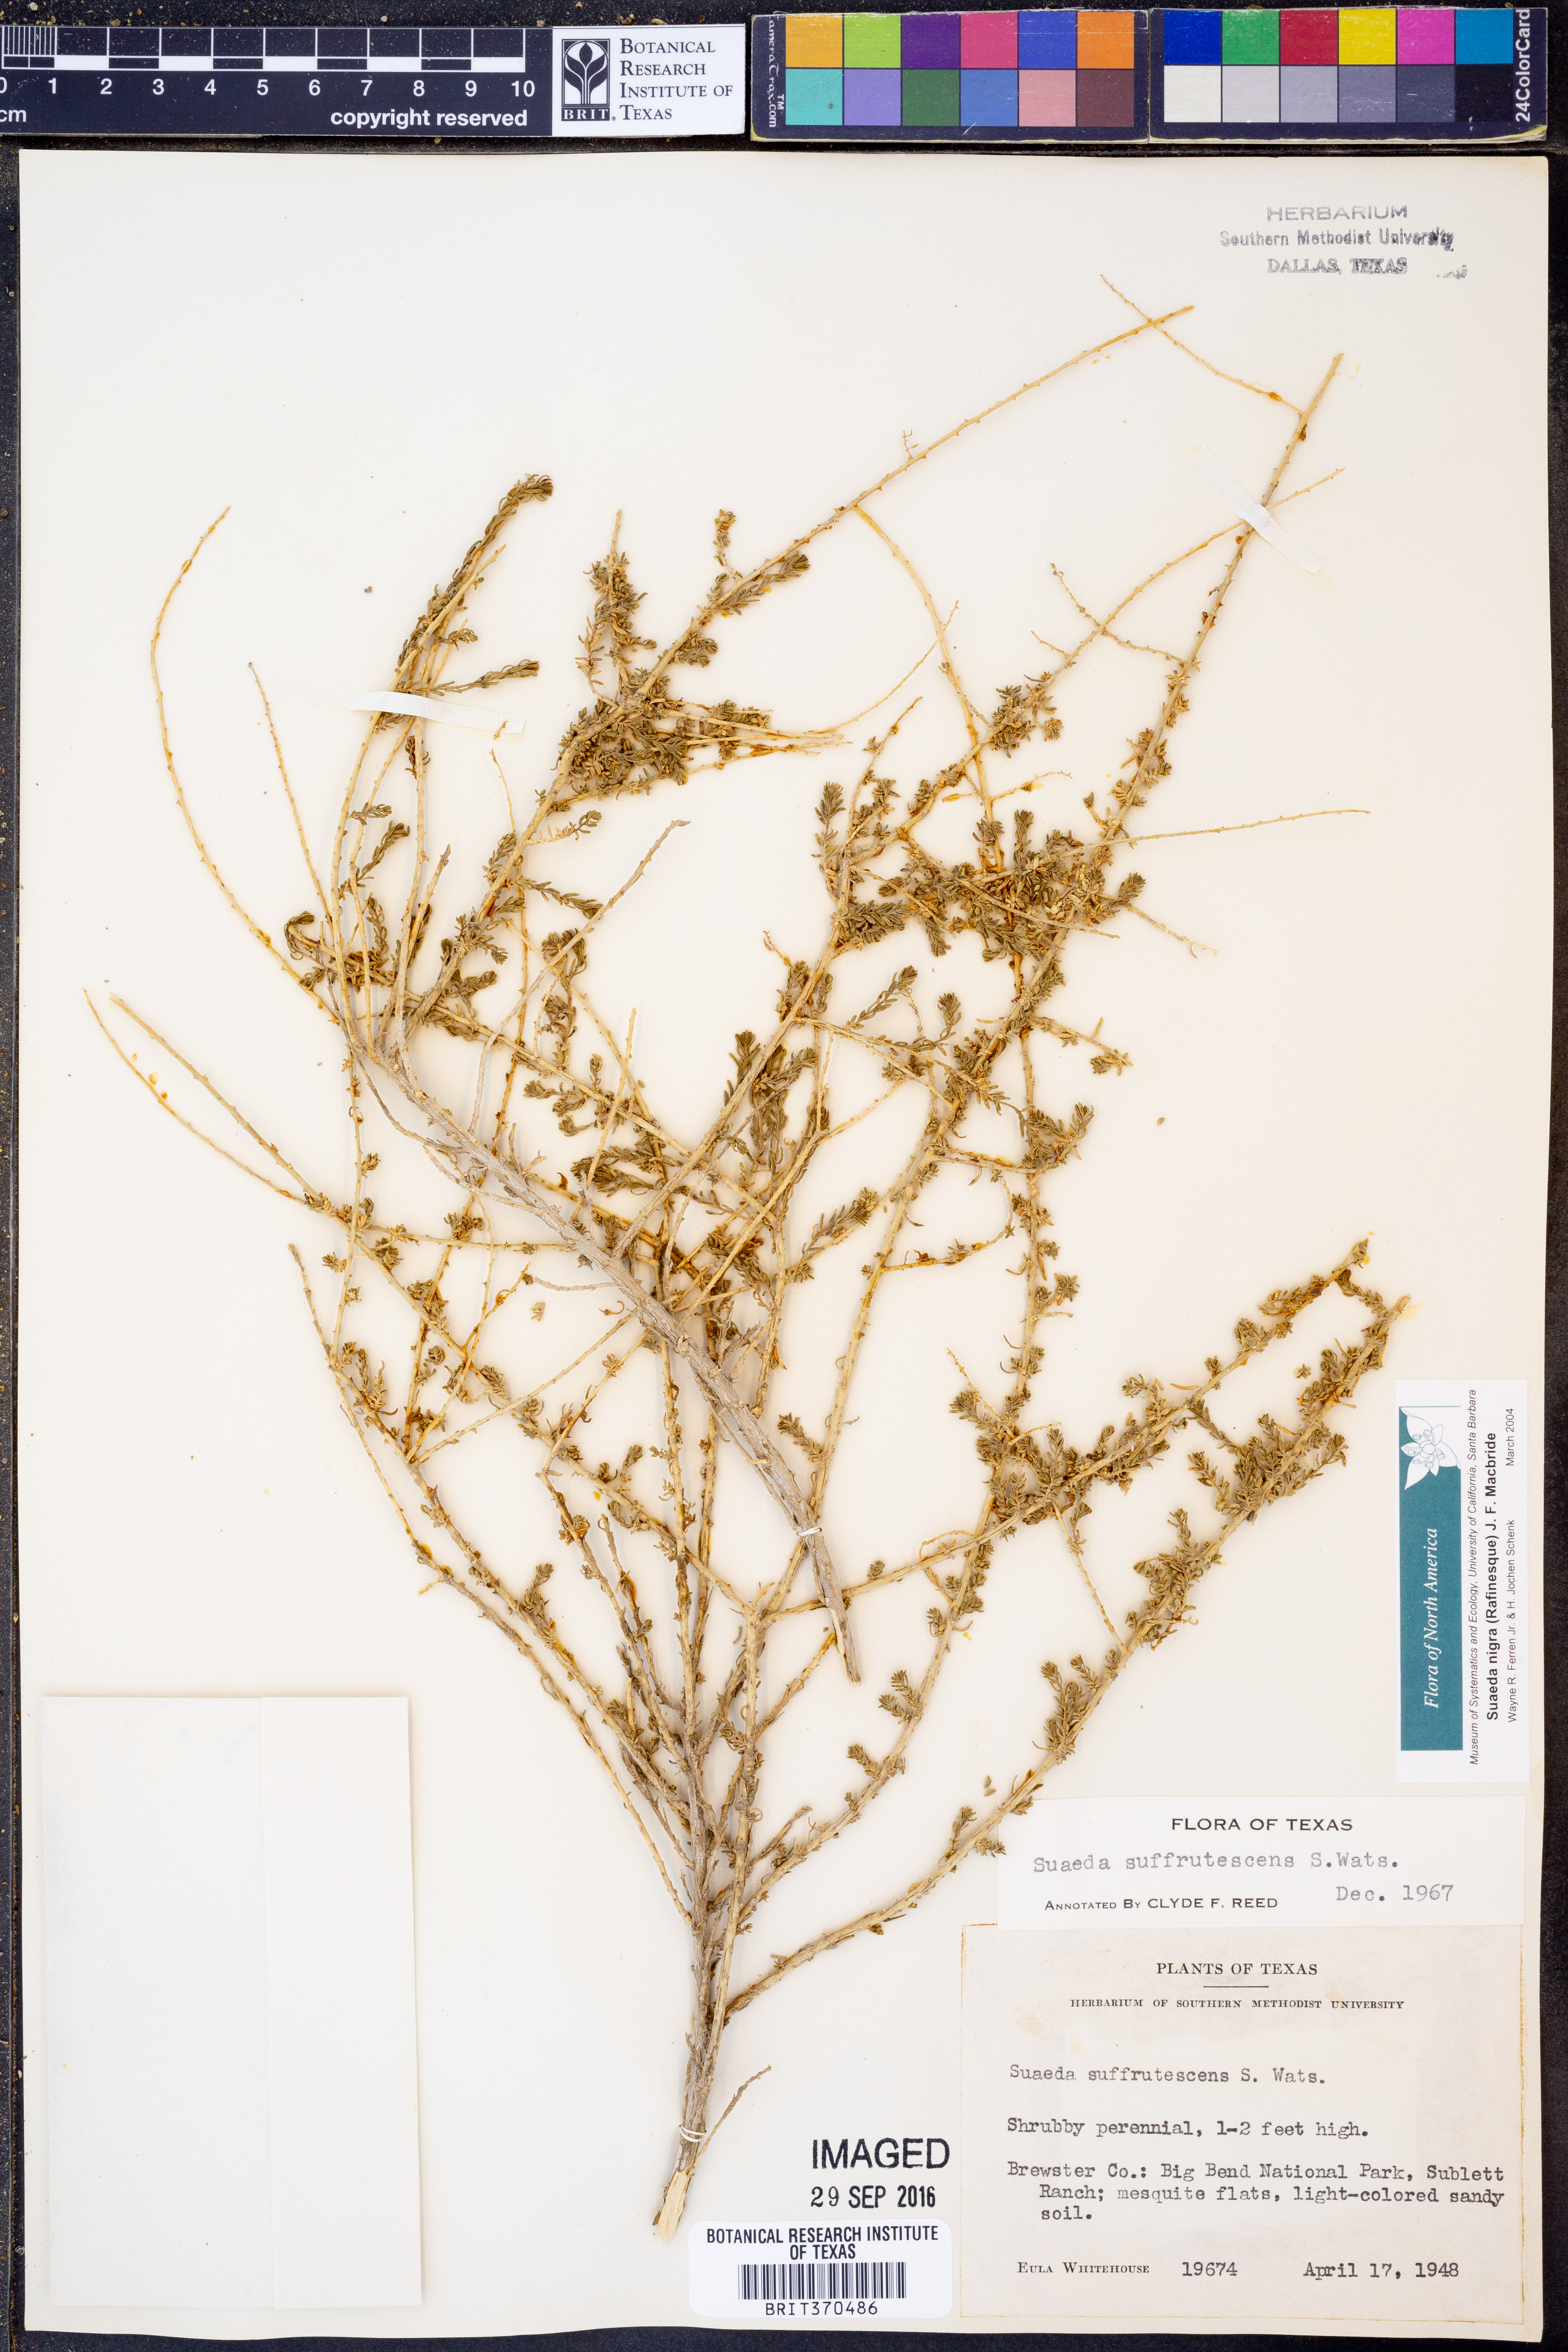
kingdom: Plantae
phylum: Tracheophyta
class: Magnoliopsida
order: Caryophyllales
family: Amaranthaceae
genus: Suaeda
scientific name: Suaeda nigra
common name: Bush seepweed
